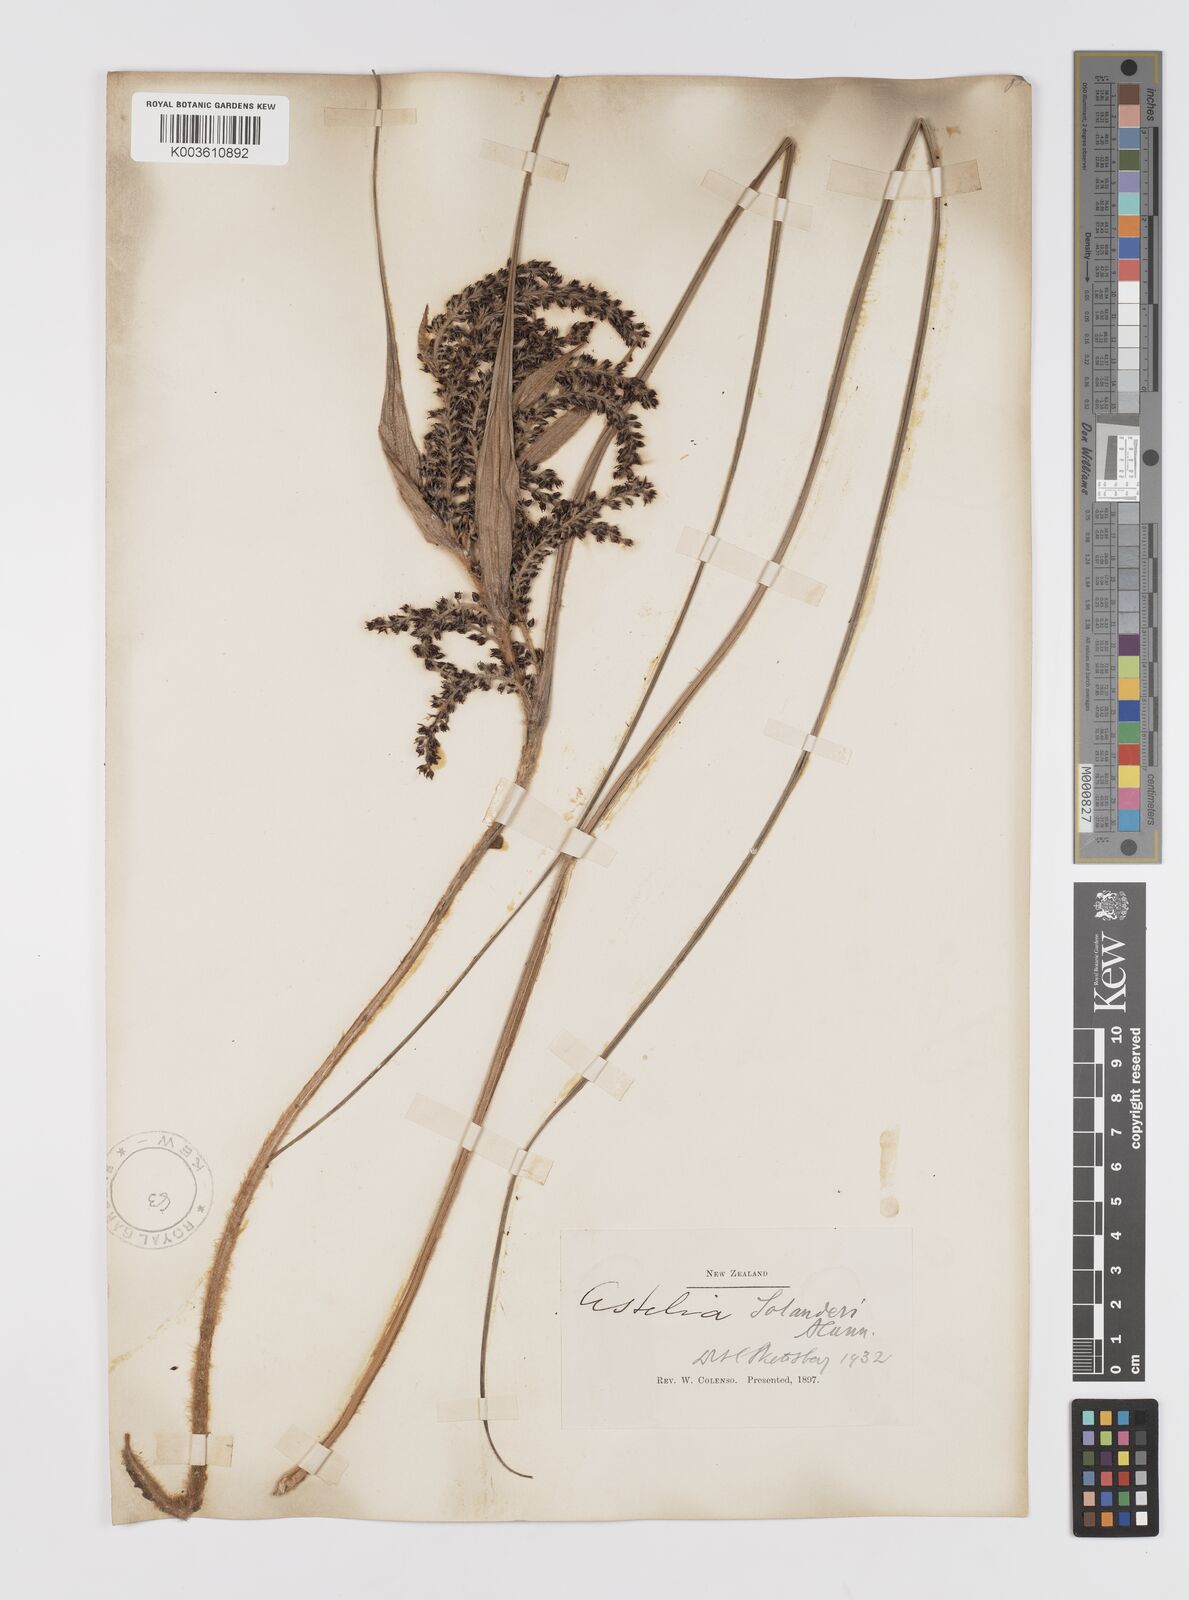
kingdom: Plantae
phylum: Tracheophyta
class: Liliopsida
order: Asparagales
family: Asteliaceae
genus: Astelia
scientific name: Astelia solandri
